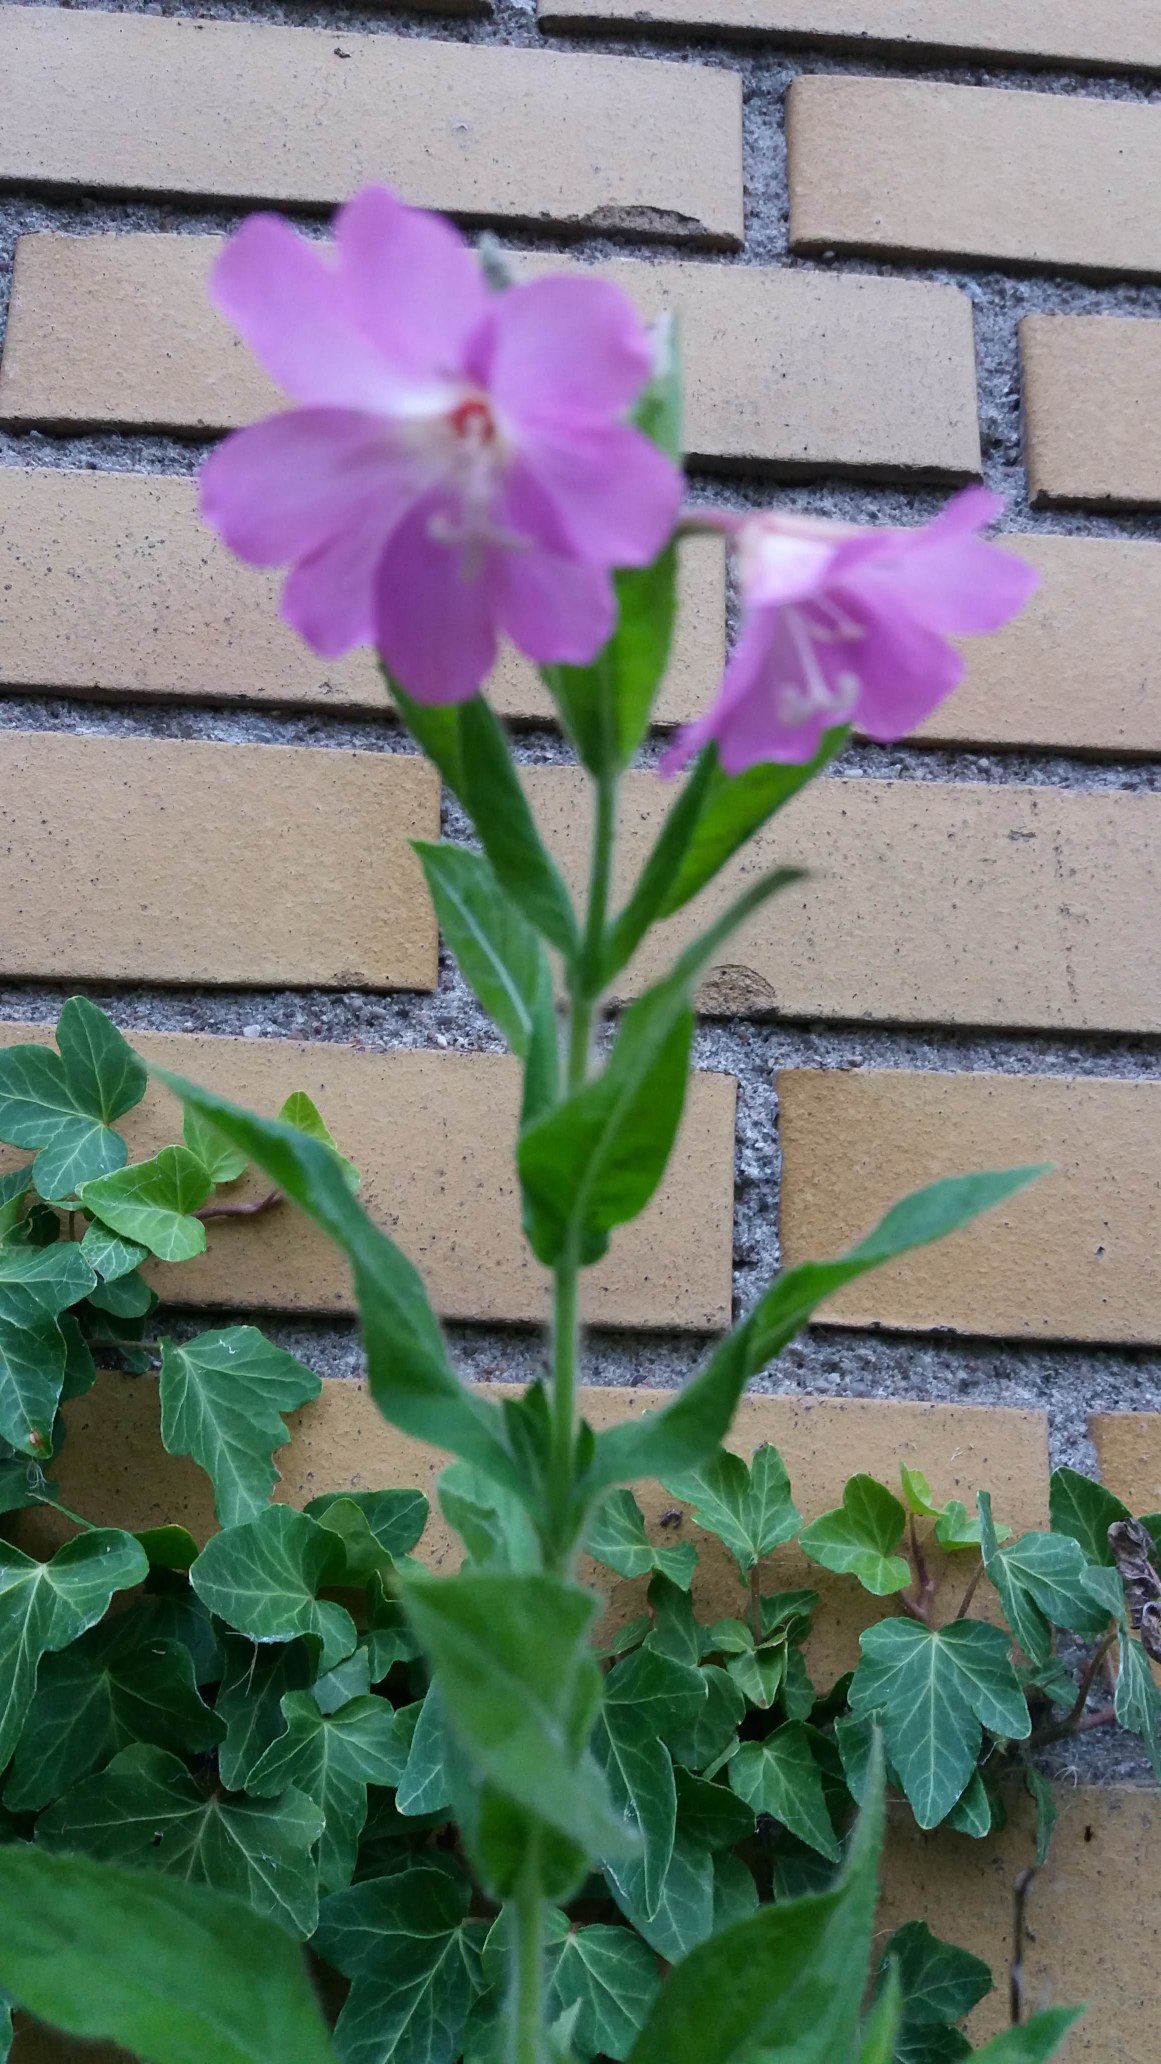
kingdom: Plantae
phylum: Tracheophyta
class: Magnoliopsida
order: Myrtales
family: Onagraceae
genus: Epilobium
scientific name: Epilobium hirsutum
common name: Lådden dueurt
